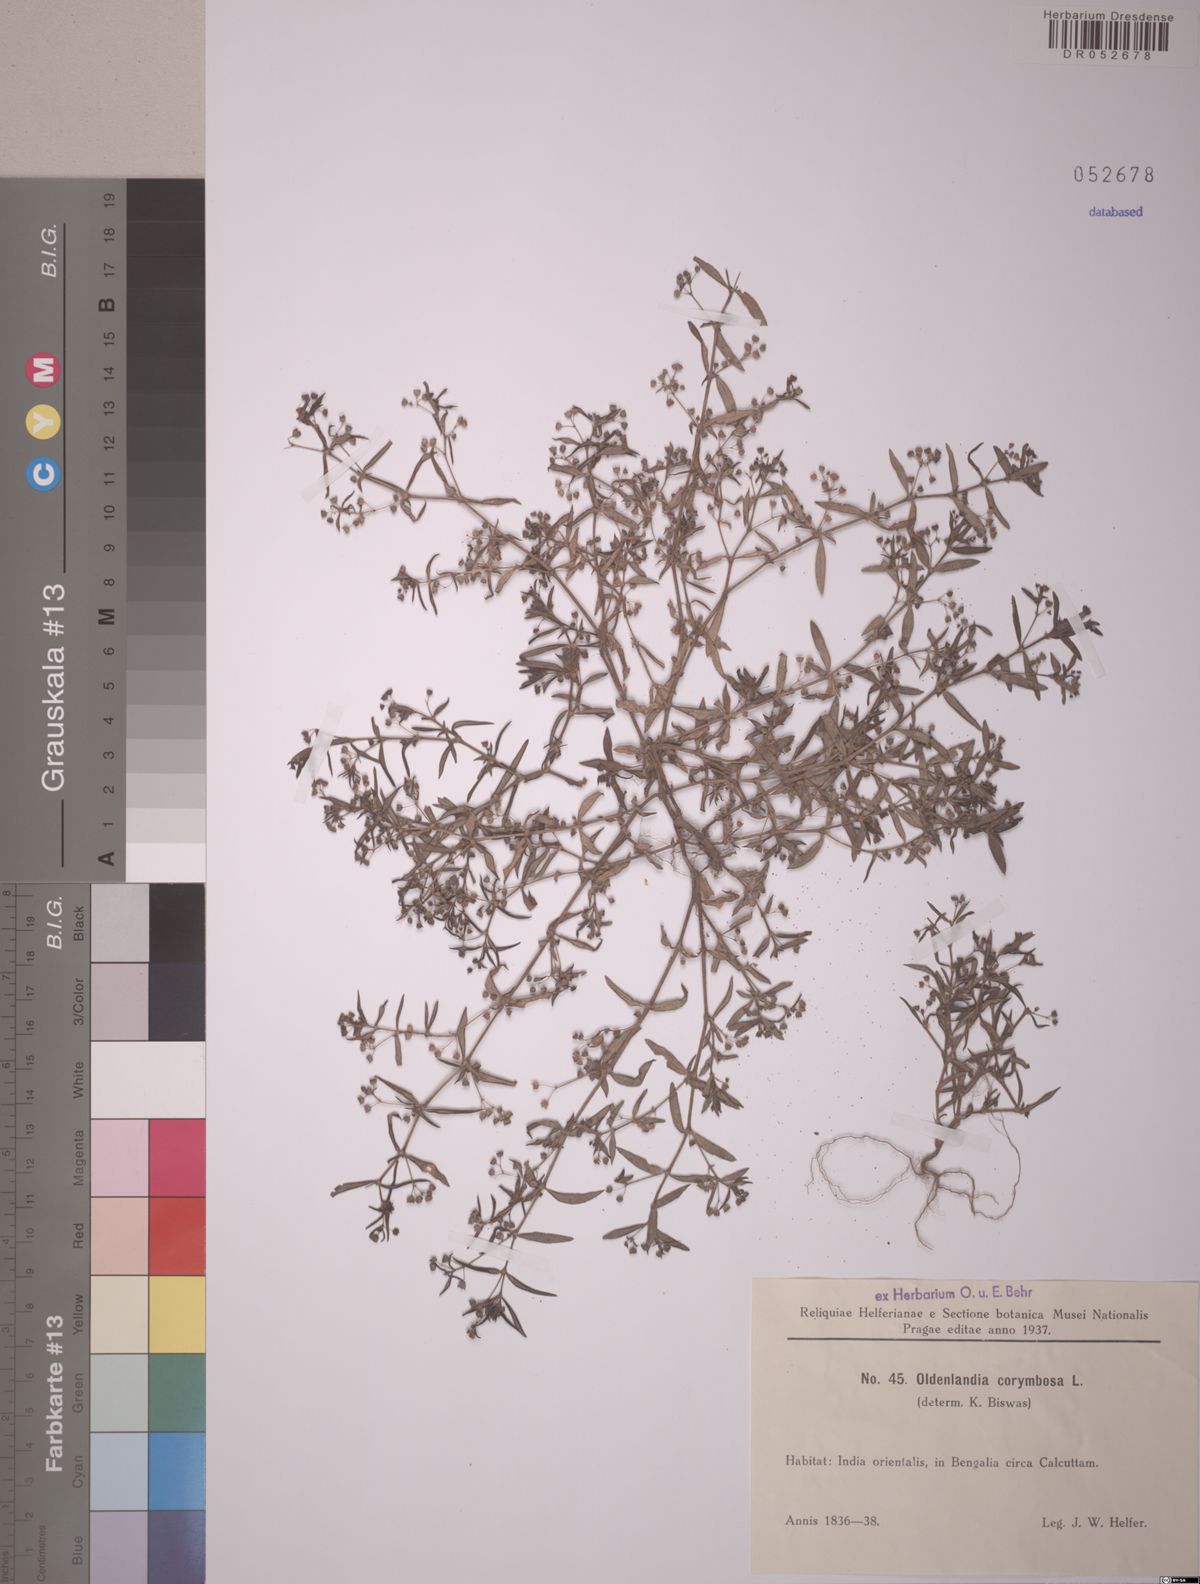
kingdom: Plantae
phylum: Tracheophyta
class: Magnoliopsida
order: Gentianales
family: Rubiaceae
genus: Oldenlandia
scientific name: Oldenlandia corymbosa
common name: Flat-top mille graines
